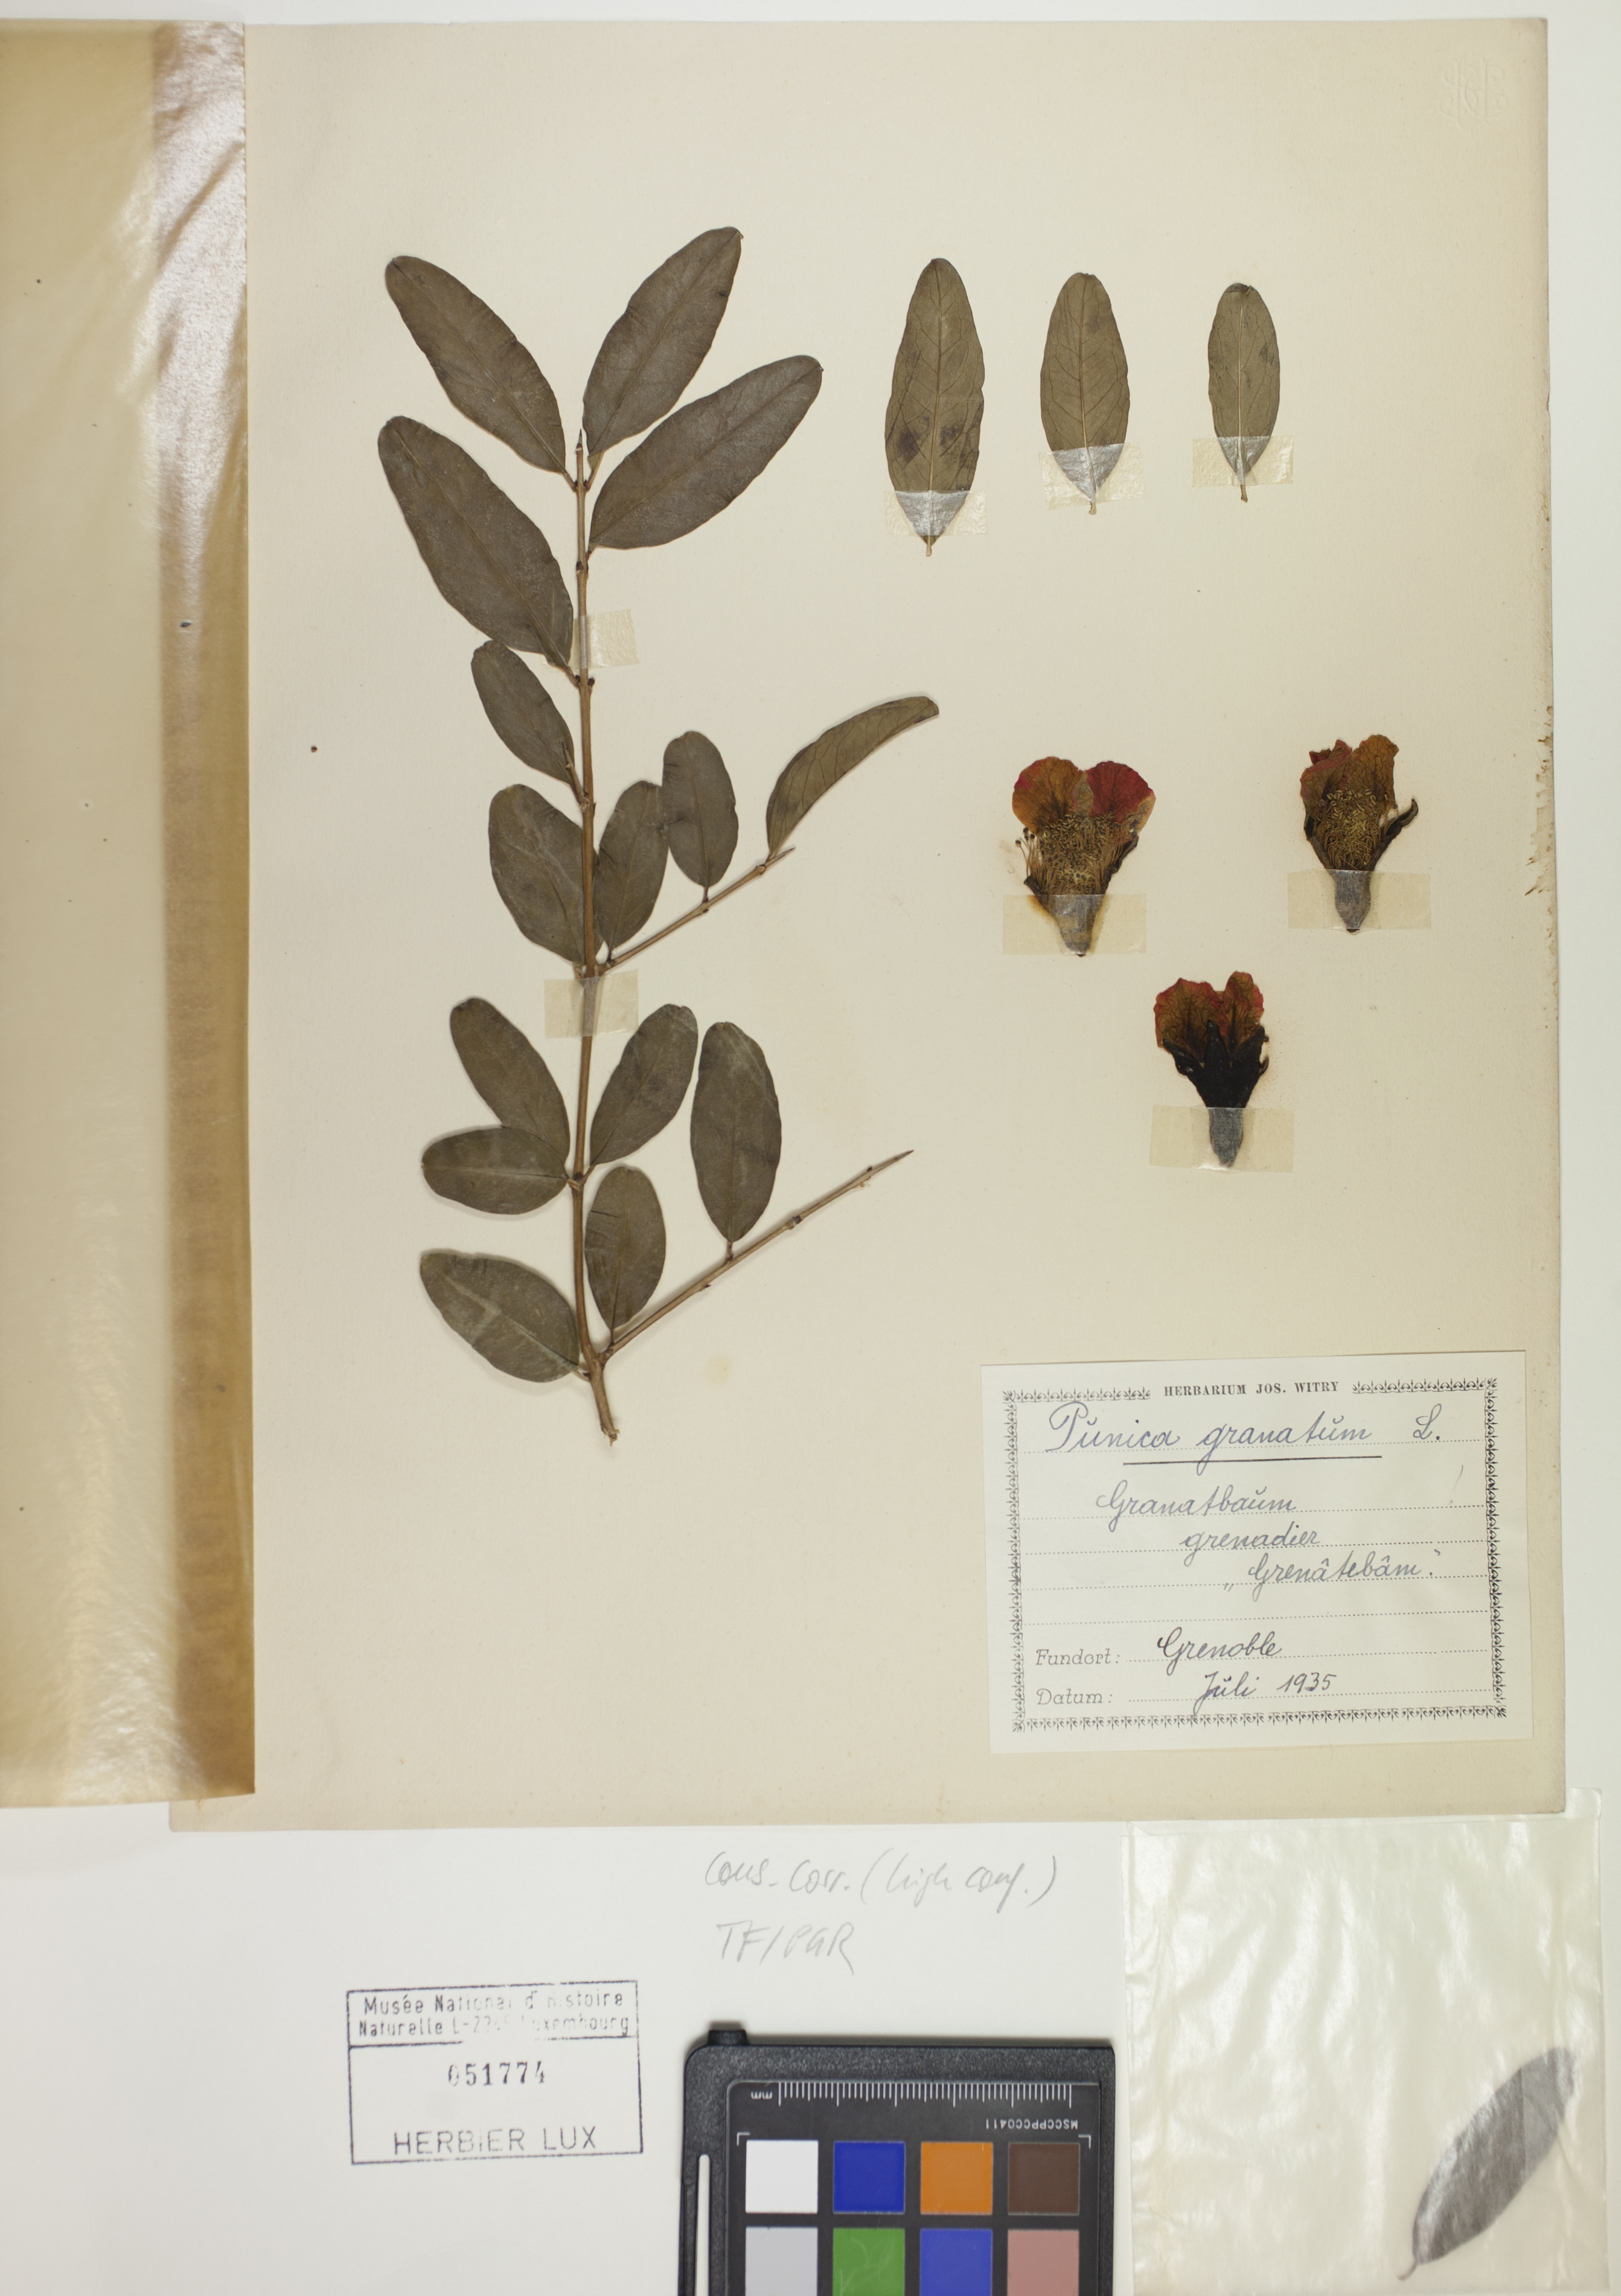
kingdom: Plantae
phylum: Tracheophyta
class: Magnoliopsida
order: Myrtales
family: Lythraceae
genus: Punica
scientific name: Punica granatum
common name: Pomegranate
